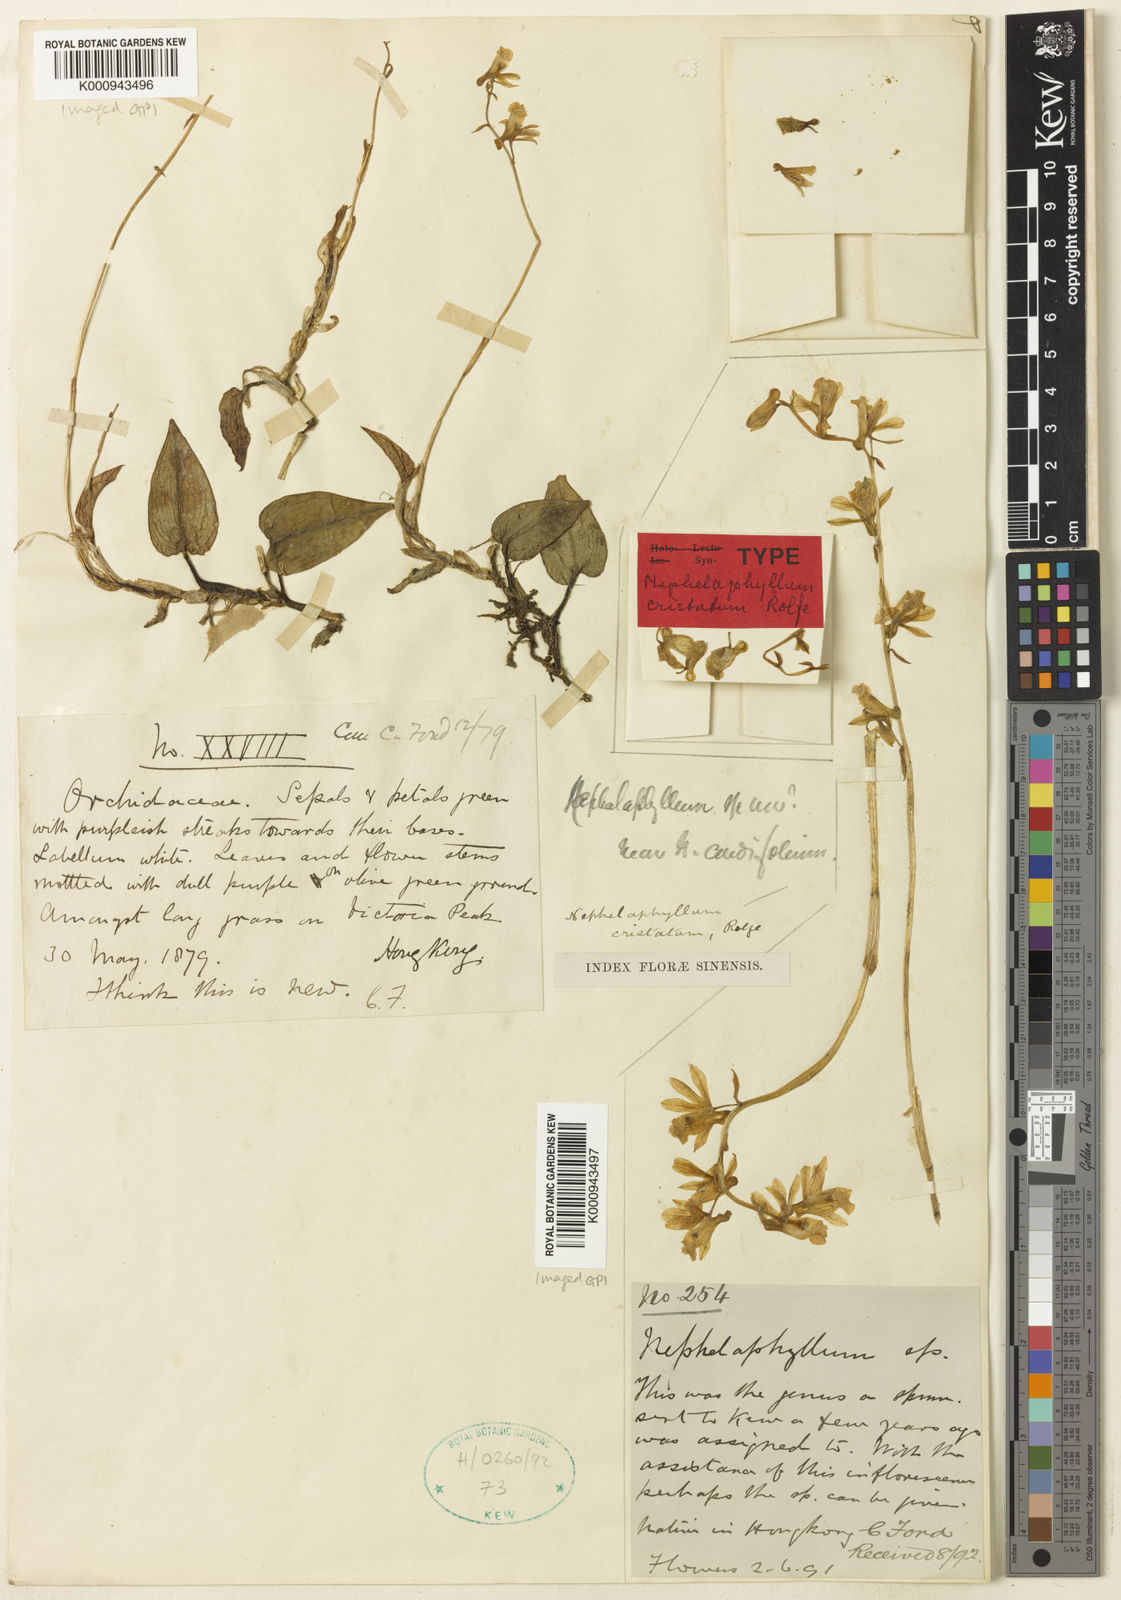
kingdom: Plantae
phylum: Tracheophyta
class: Liliopsida
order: Asparagales
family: Orchidaceae
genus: Nephelaphyllum
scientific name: Nephelaphyllum tenuiflorum
